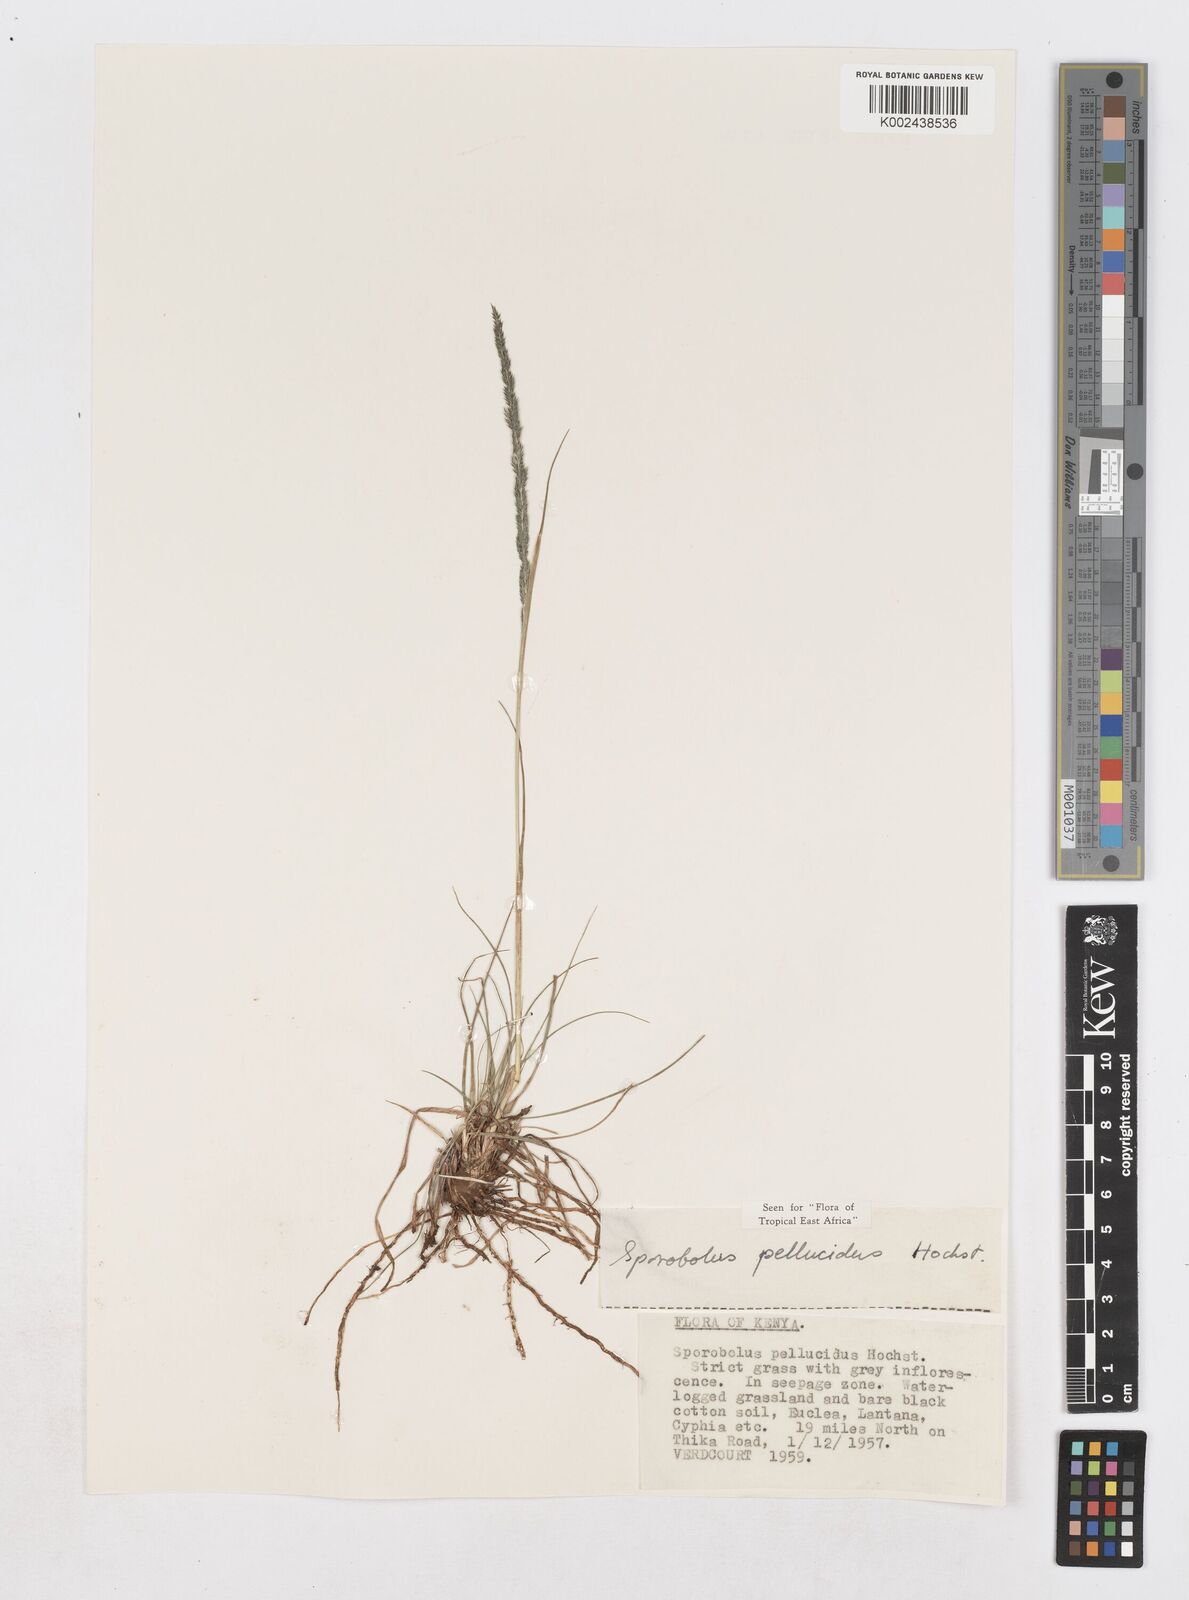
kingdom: Plantae
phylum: Tracheophyta
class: Liliopsida
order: Poales
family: Poaceae
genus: Sporobolus
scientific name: Sporobolus pellucidus
